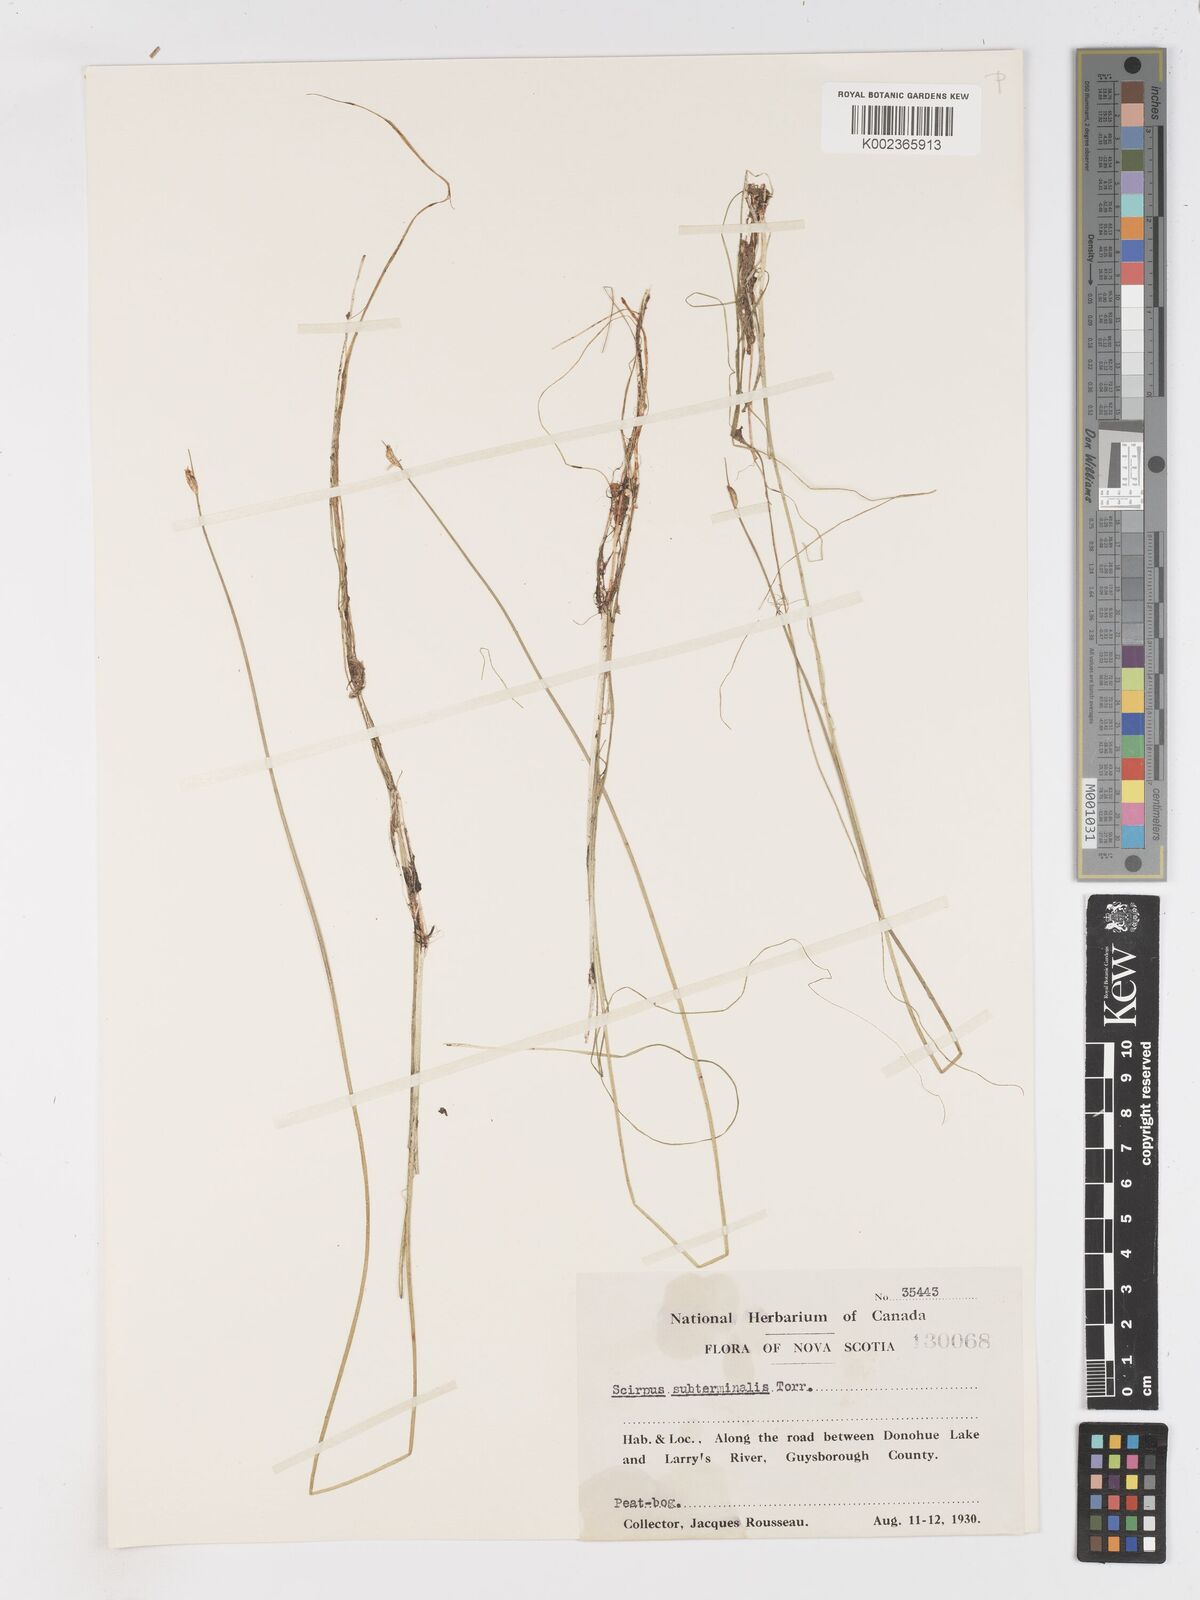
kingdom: Plantae
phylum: Tracheophyta
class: Liliopsida
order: Poales
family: Cyperaceae
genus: Schoenoplectus
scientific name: Schoenoplectus subterminalis
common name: Swaying bulrush
